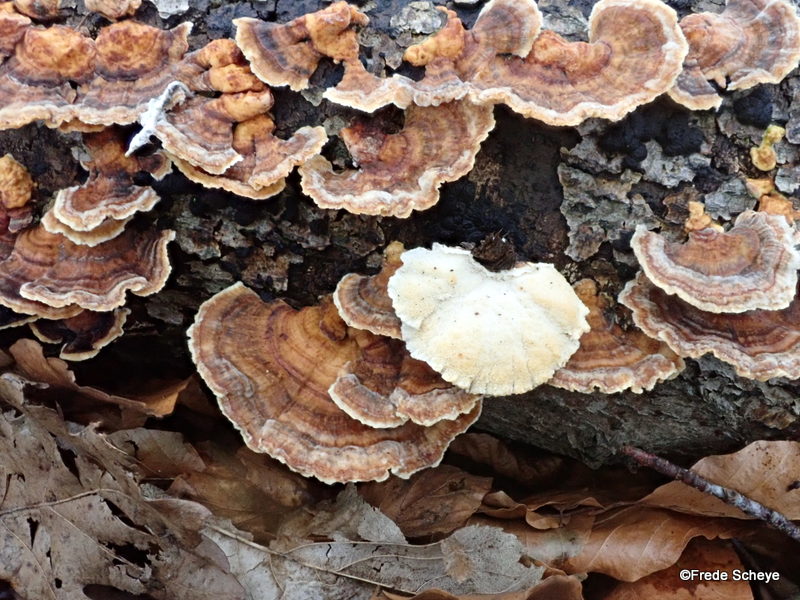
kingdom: Fungi
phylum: Basidiomycota
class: Agaricomycetes
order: Polyporales
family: Polyporaceae
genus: Trametes
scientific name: Trametes versicolor
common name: broget læderporesvamp
